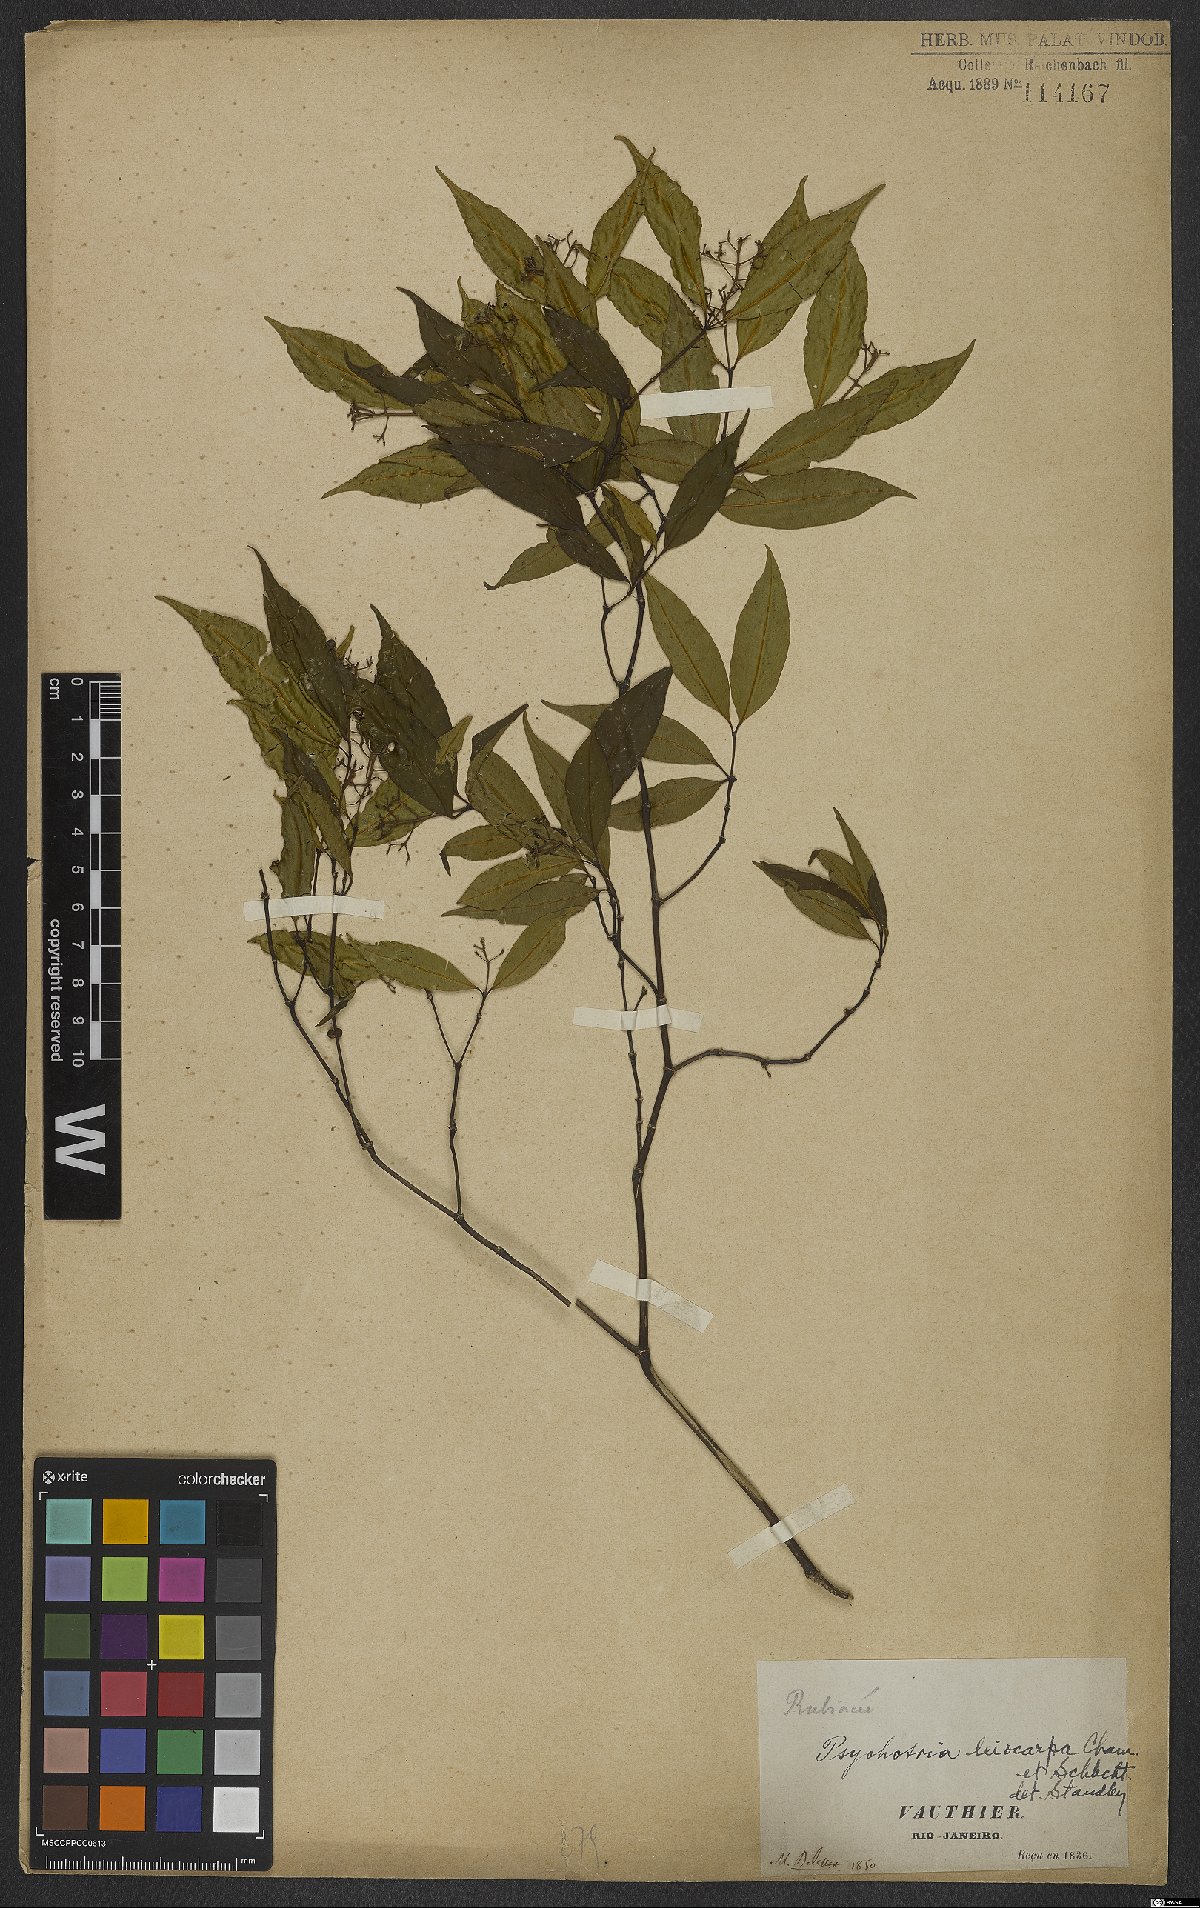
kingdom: Plantae
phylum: Tracheophyta
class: Magnoliopsida
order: Gentianales
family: Rubiaceae
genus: Psychotria
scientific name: Psychotria leiocarpa
